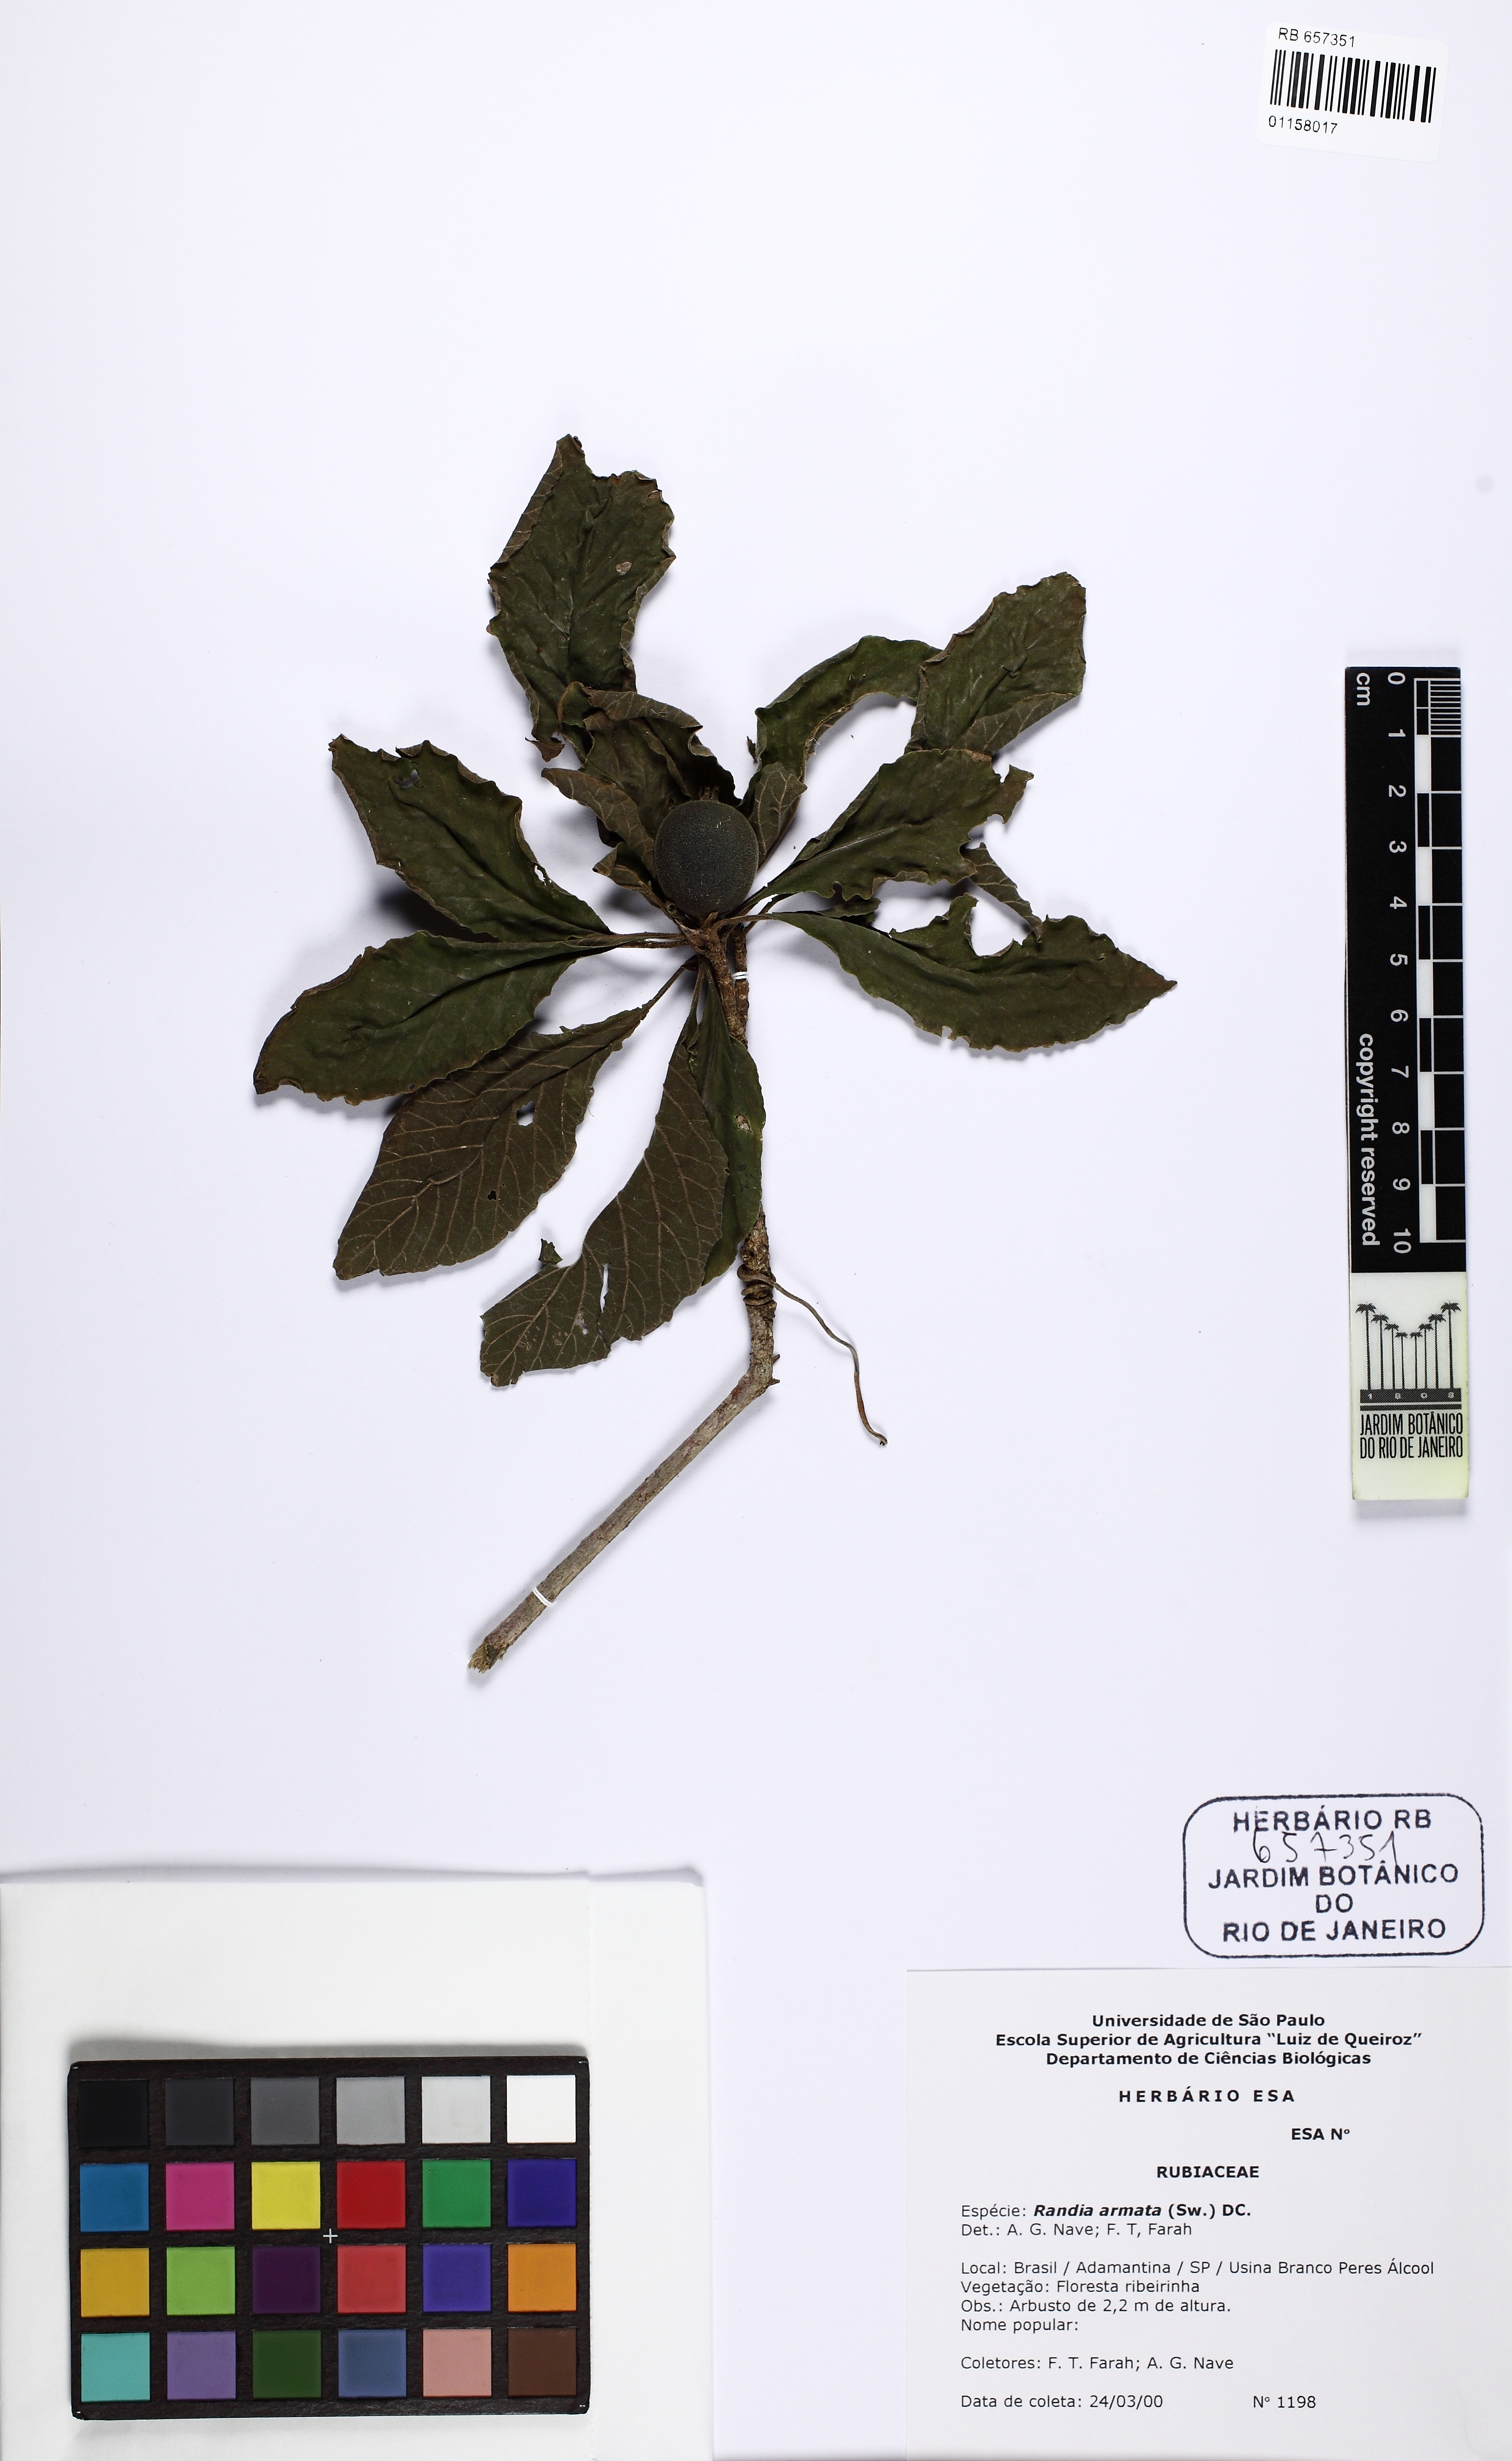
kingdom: Plantae
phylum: Tracheophyta
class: Magnoliopsida
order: Gentianales
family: Rubiaceae
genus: Randia
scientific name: Randia calycina
